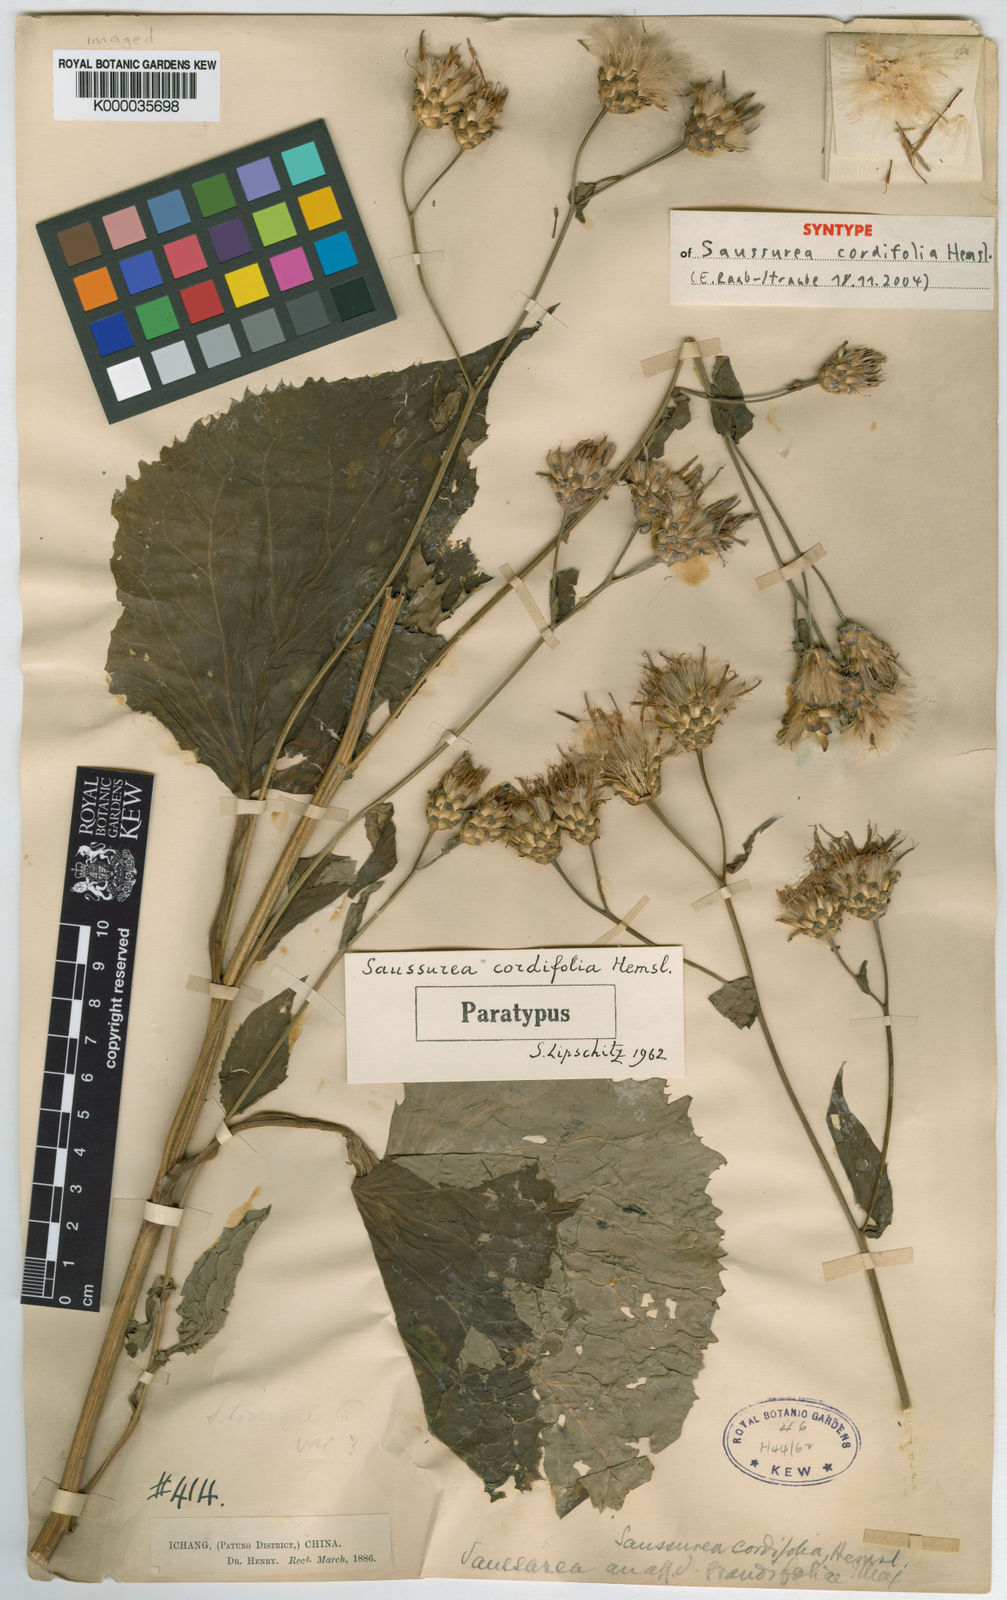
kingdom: Plantae
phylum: Tracheophyta
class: Magnoliopsida
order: Asterales
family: Asteraceae
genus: Saussurea
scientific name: Saussurea cordifolia
